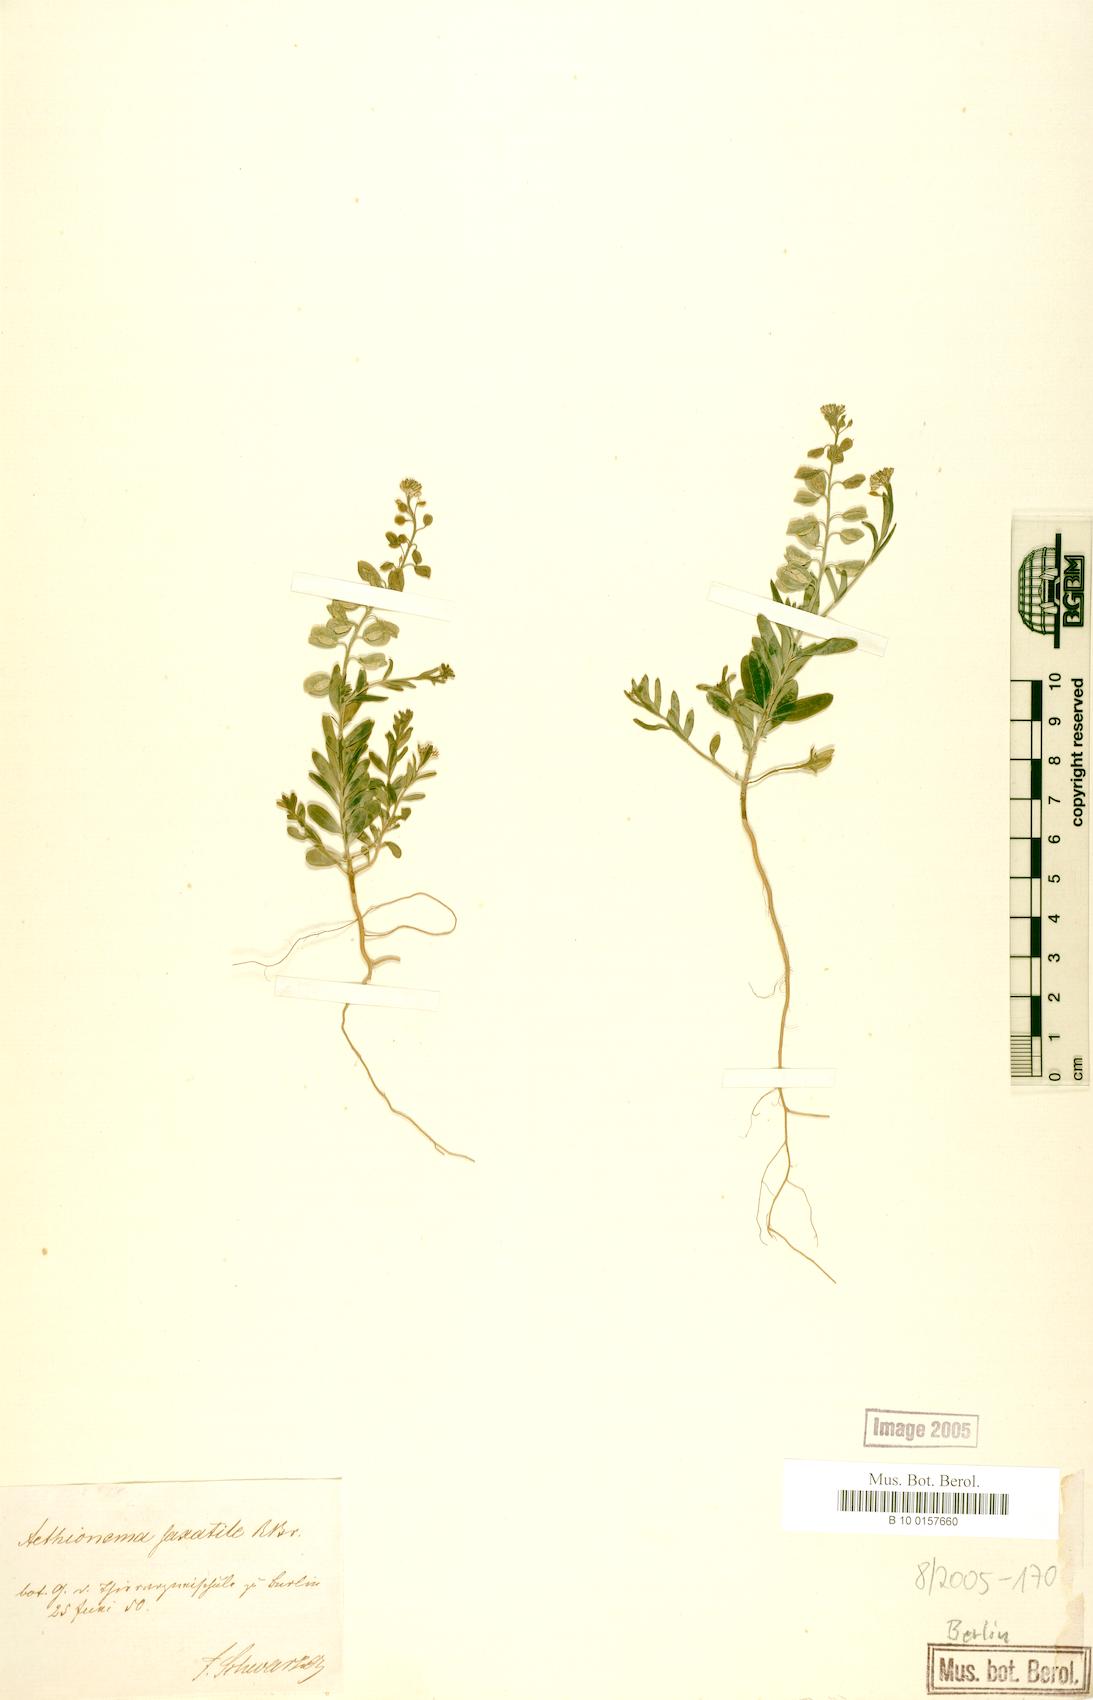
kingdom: Plantae
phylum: Tracheophyta
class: Magnoliopsida
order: Brassicales
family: Brassicaceae
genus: Aethionema
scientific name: Aethionema saxatile
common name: Burnt candytuft
